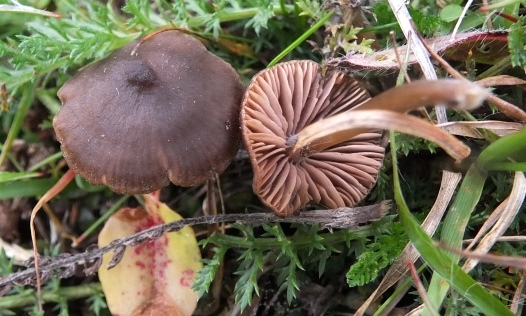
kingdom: Fungi
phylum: Basidiomycota
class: Agaricomycetes
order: Agaricales
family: Entolomataceae
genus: Entoloma
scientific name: Entoloma conferendum
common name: stjernesporet rødblad
